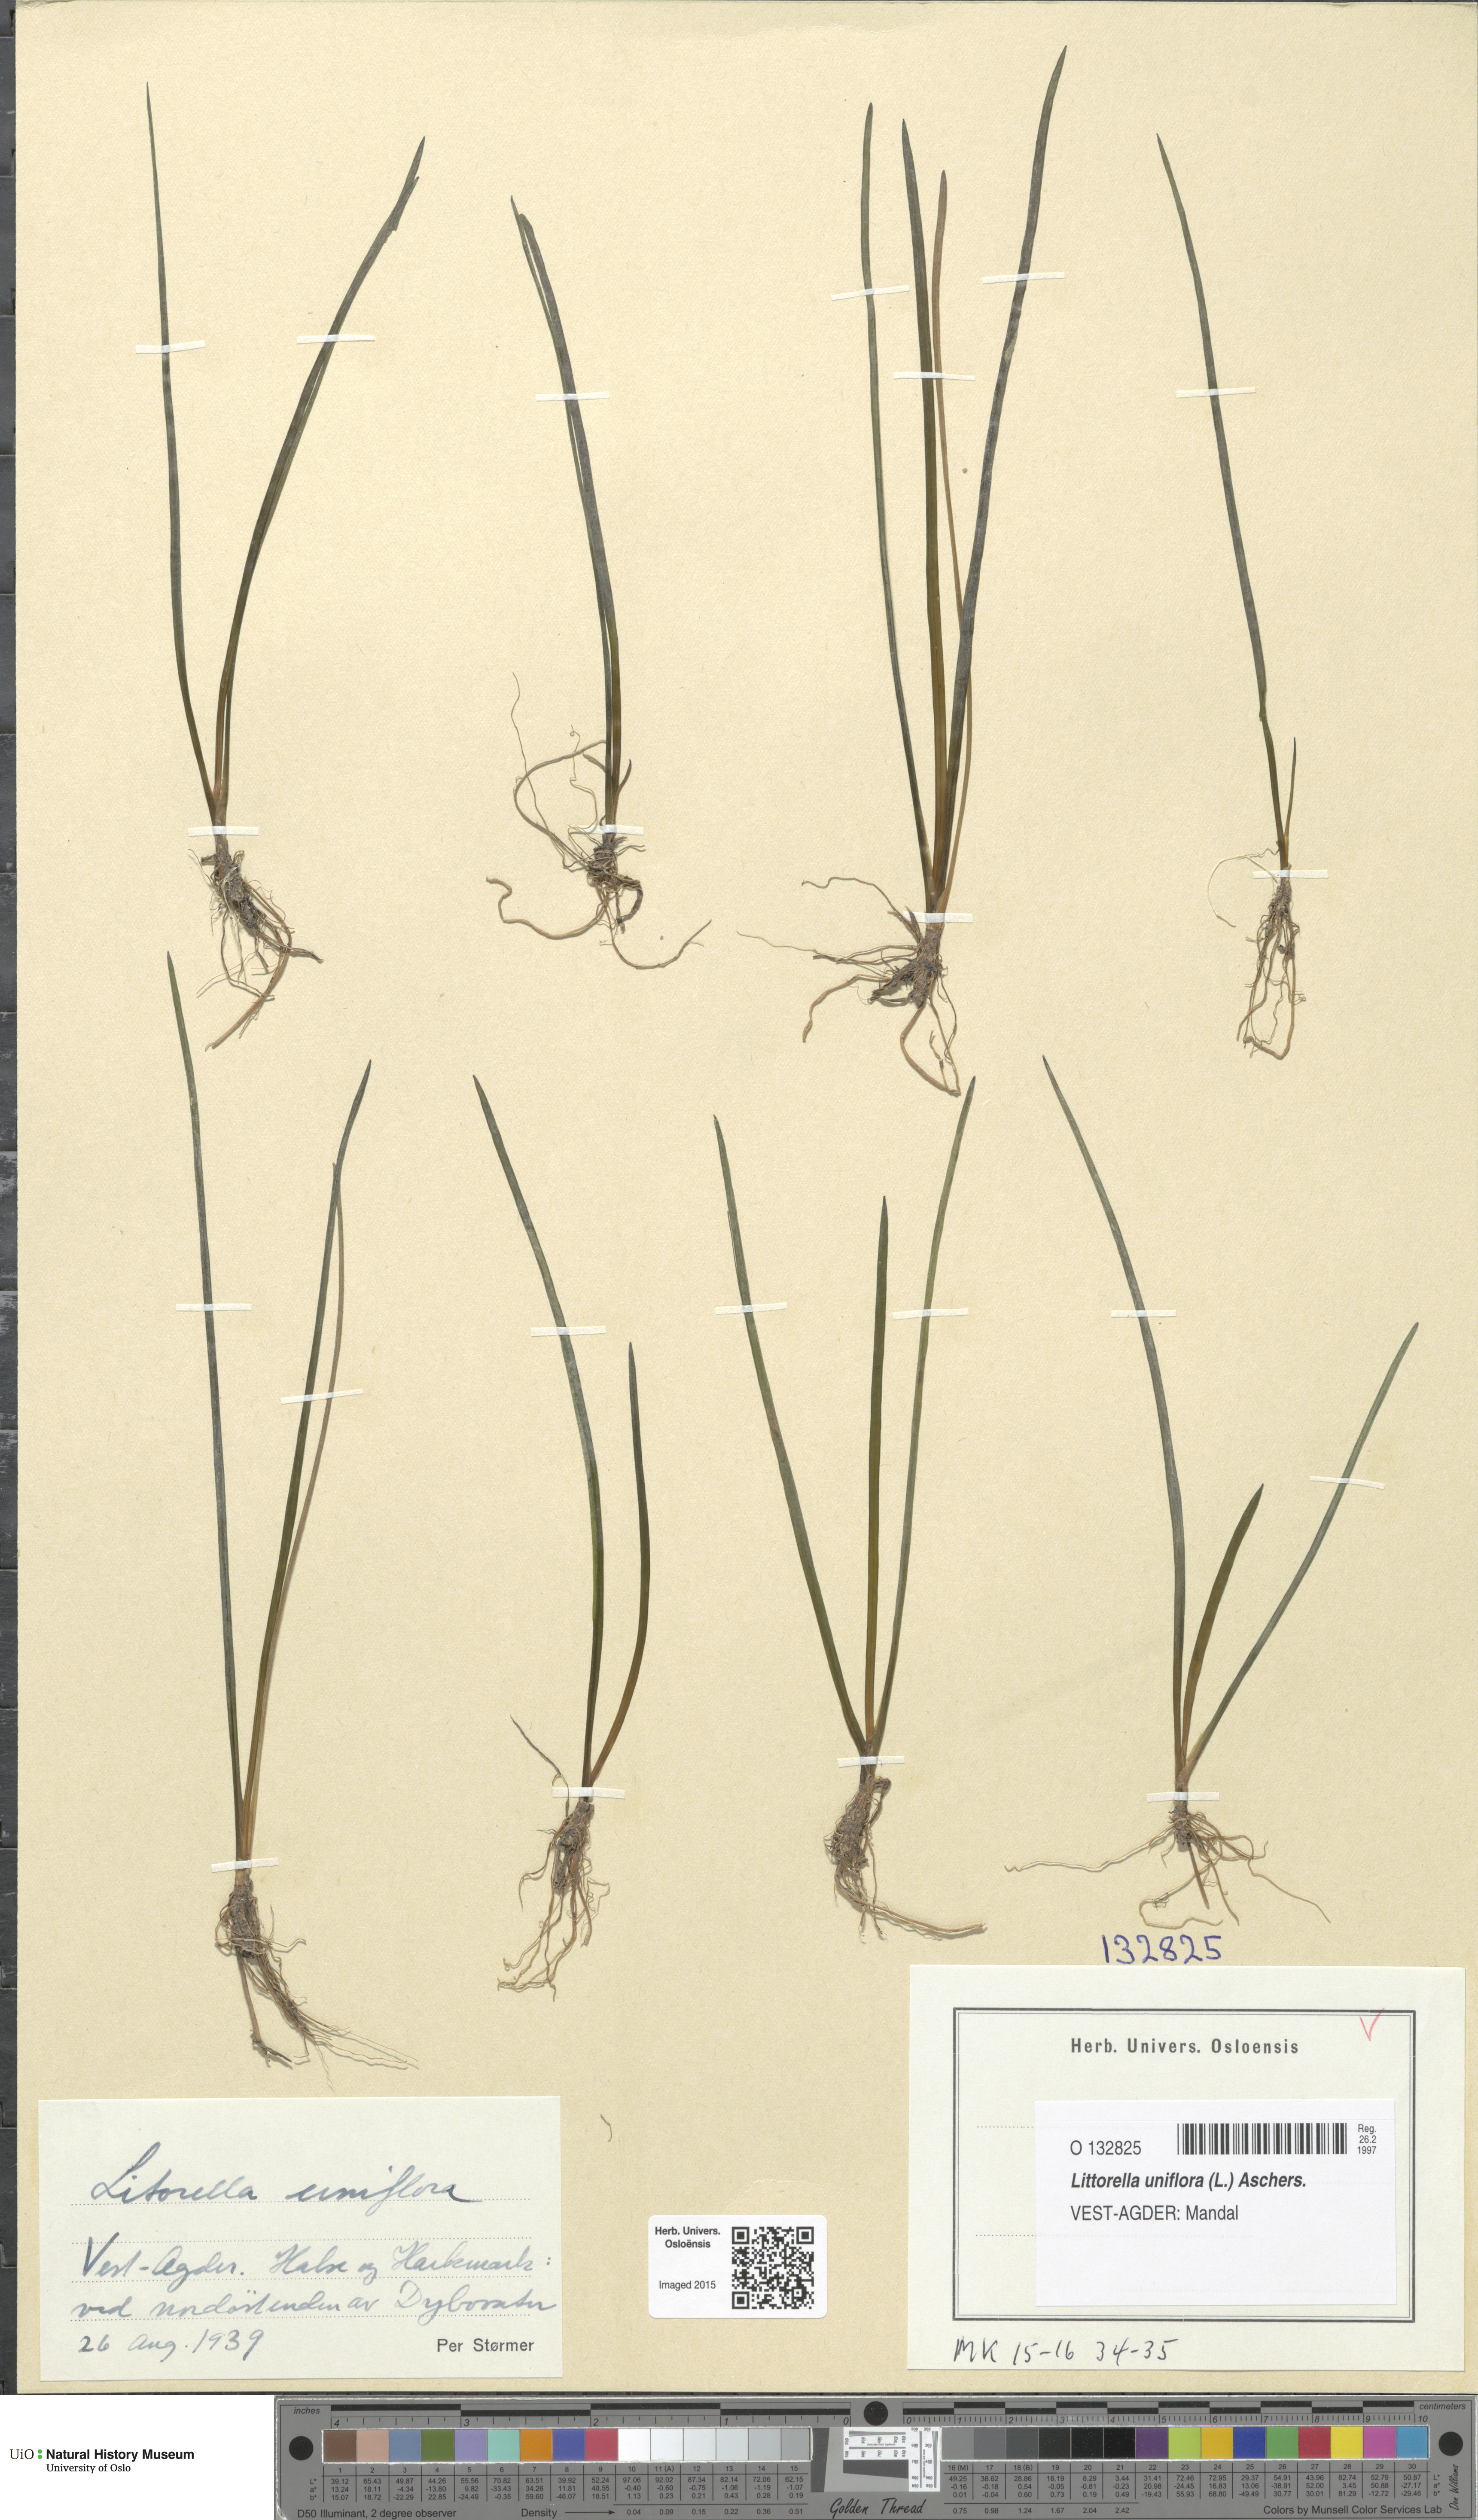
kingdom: Plantae
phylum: Tracheophyta
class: Magnoliopsida
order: Lamiales
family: Plantaginaceae
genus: Littorella
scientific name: Littorella uniflora
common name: Shoreweed
